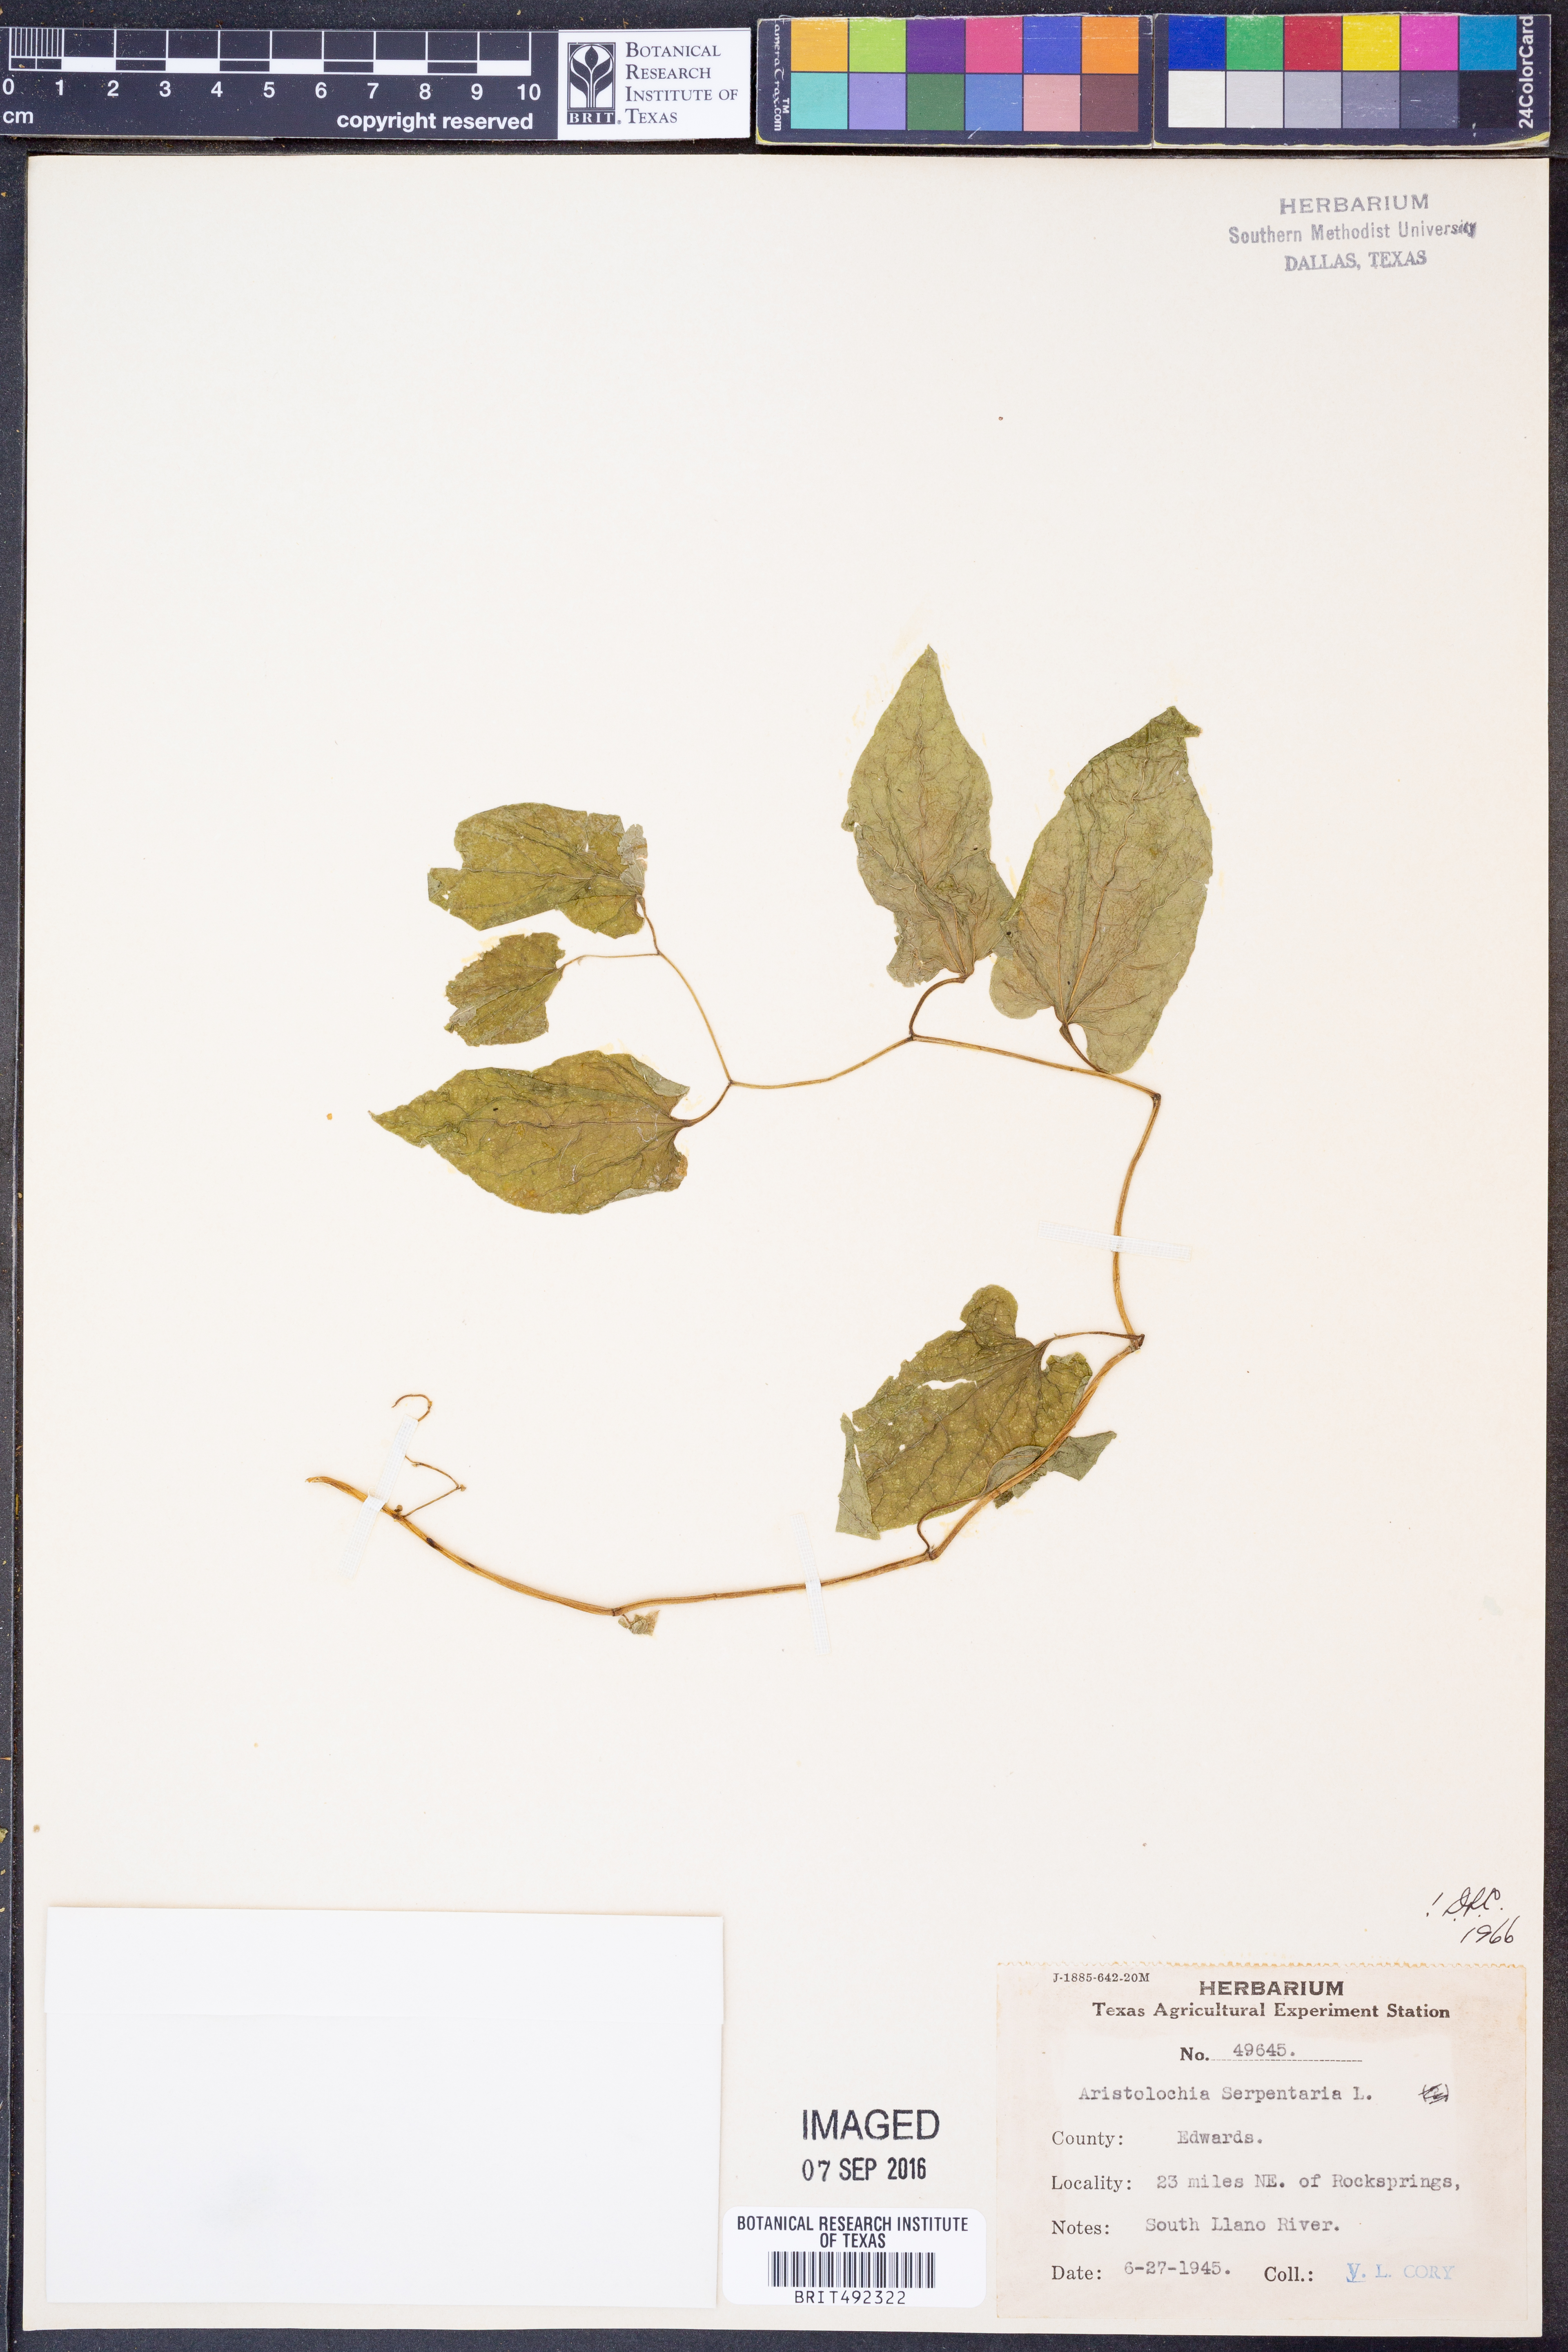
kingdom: Plantae
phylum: Tracheophyta
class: Magnoliopsida
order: Piperales
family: Aristolochiaceae
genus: Endodeca
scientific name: Endodeca serpentaria
